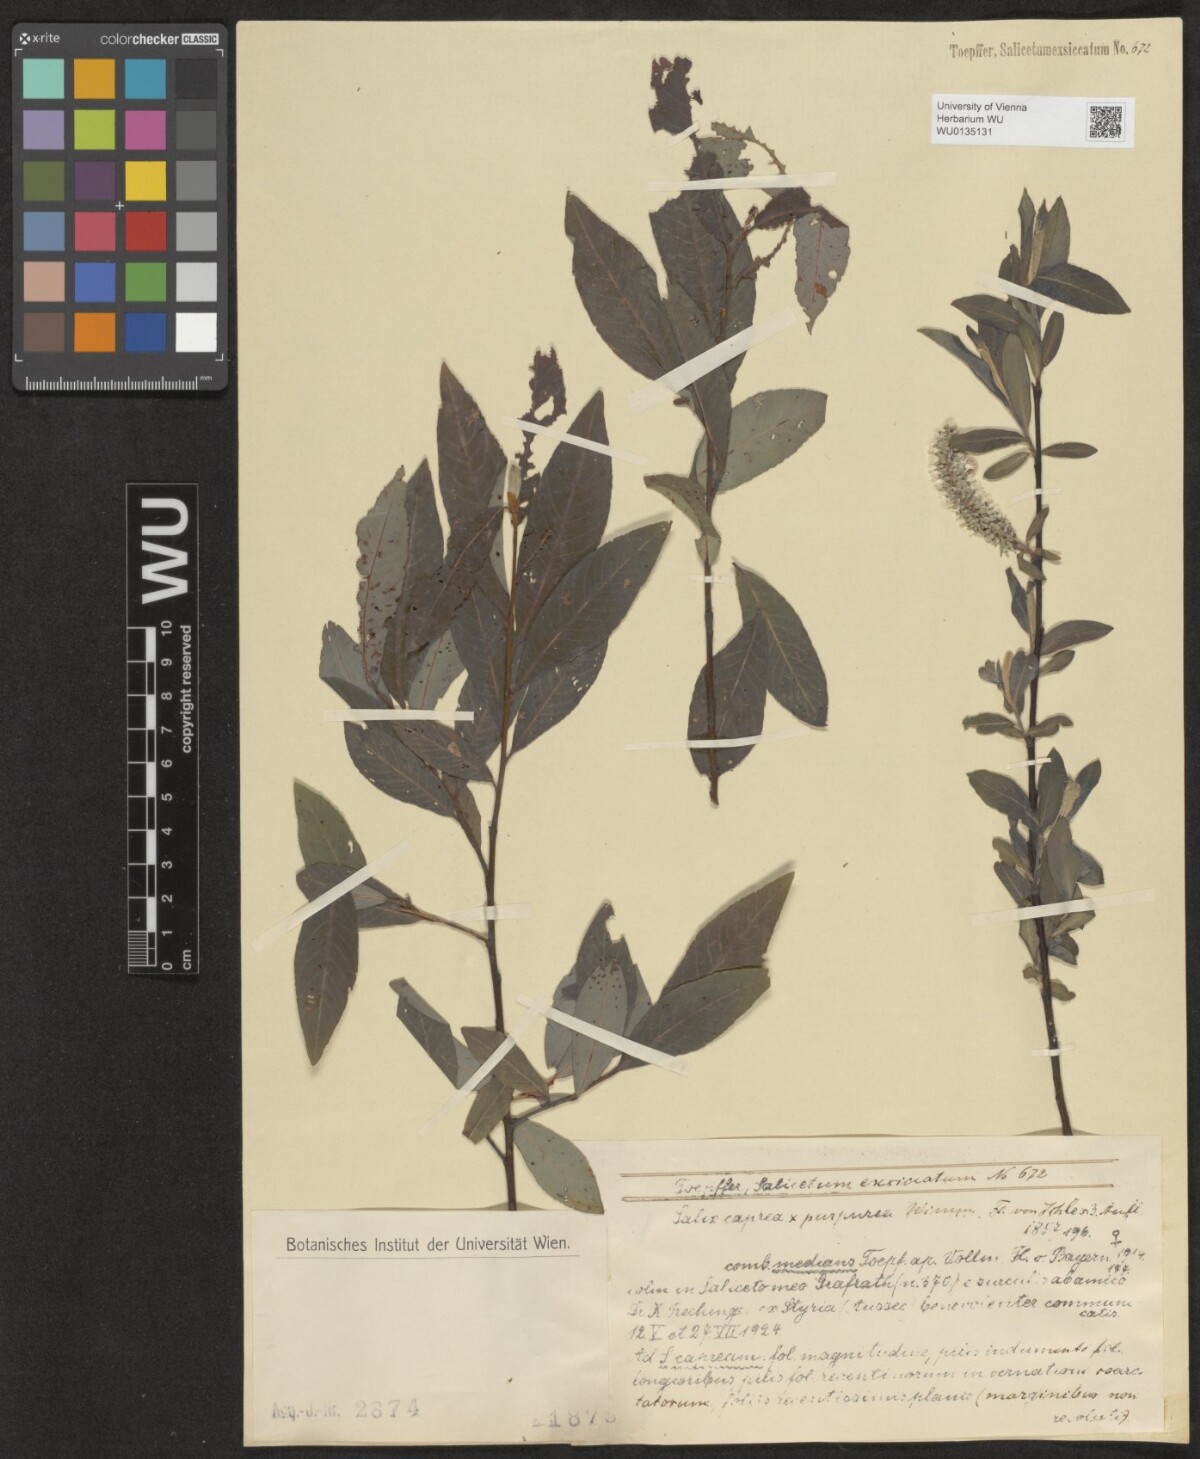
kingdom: Plantae
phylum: Tracheophyta
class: Magnoliopsida
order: Malpighiales
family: Salicaceae
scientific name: Salicaceae
